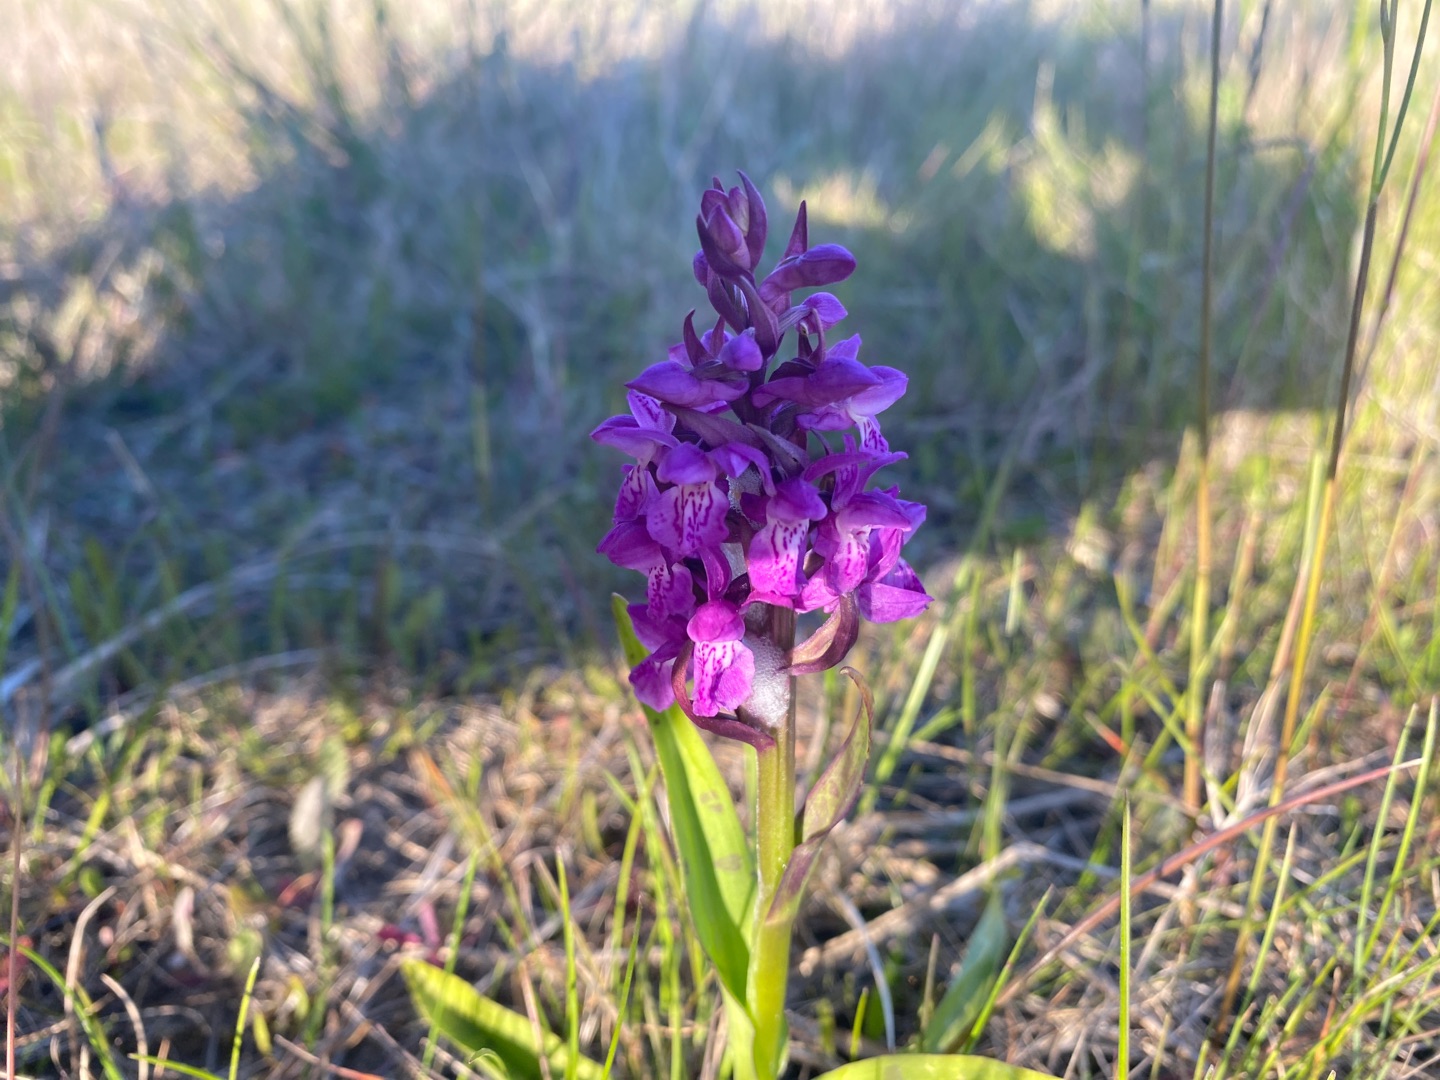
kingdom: Plantae
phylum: Tracheophyta
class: Liliopsida
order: Asparagales
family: Orchidaceae
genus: Dactylorhiza
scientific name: Dactylorhiza majalis
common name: Maj-gøgeurt
